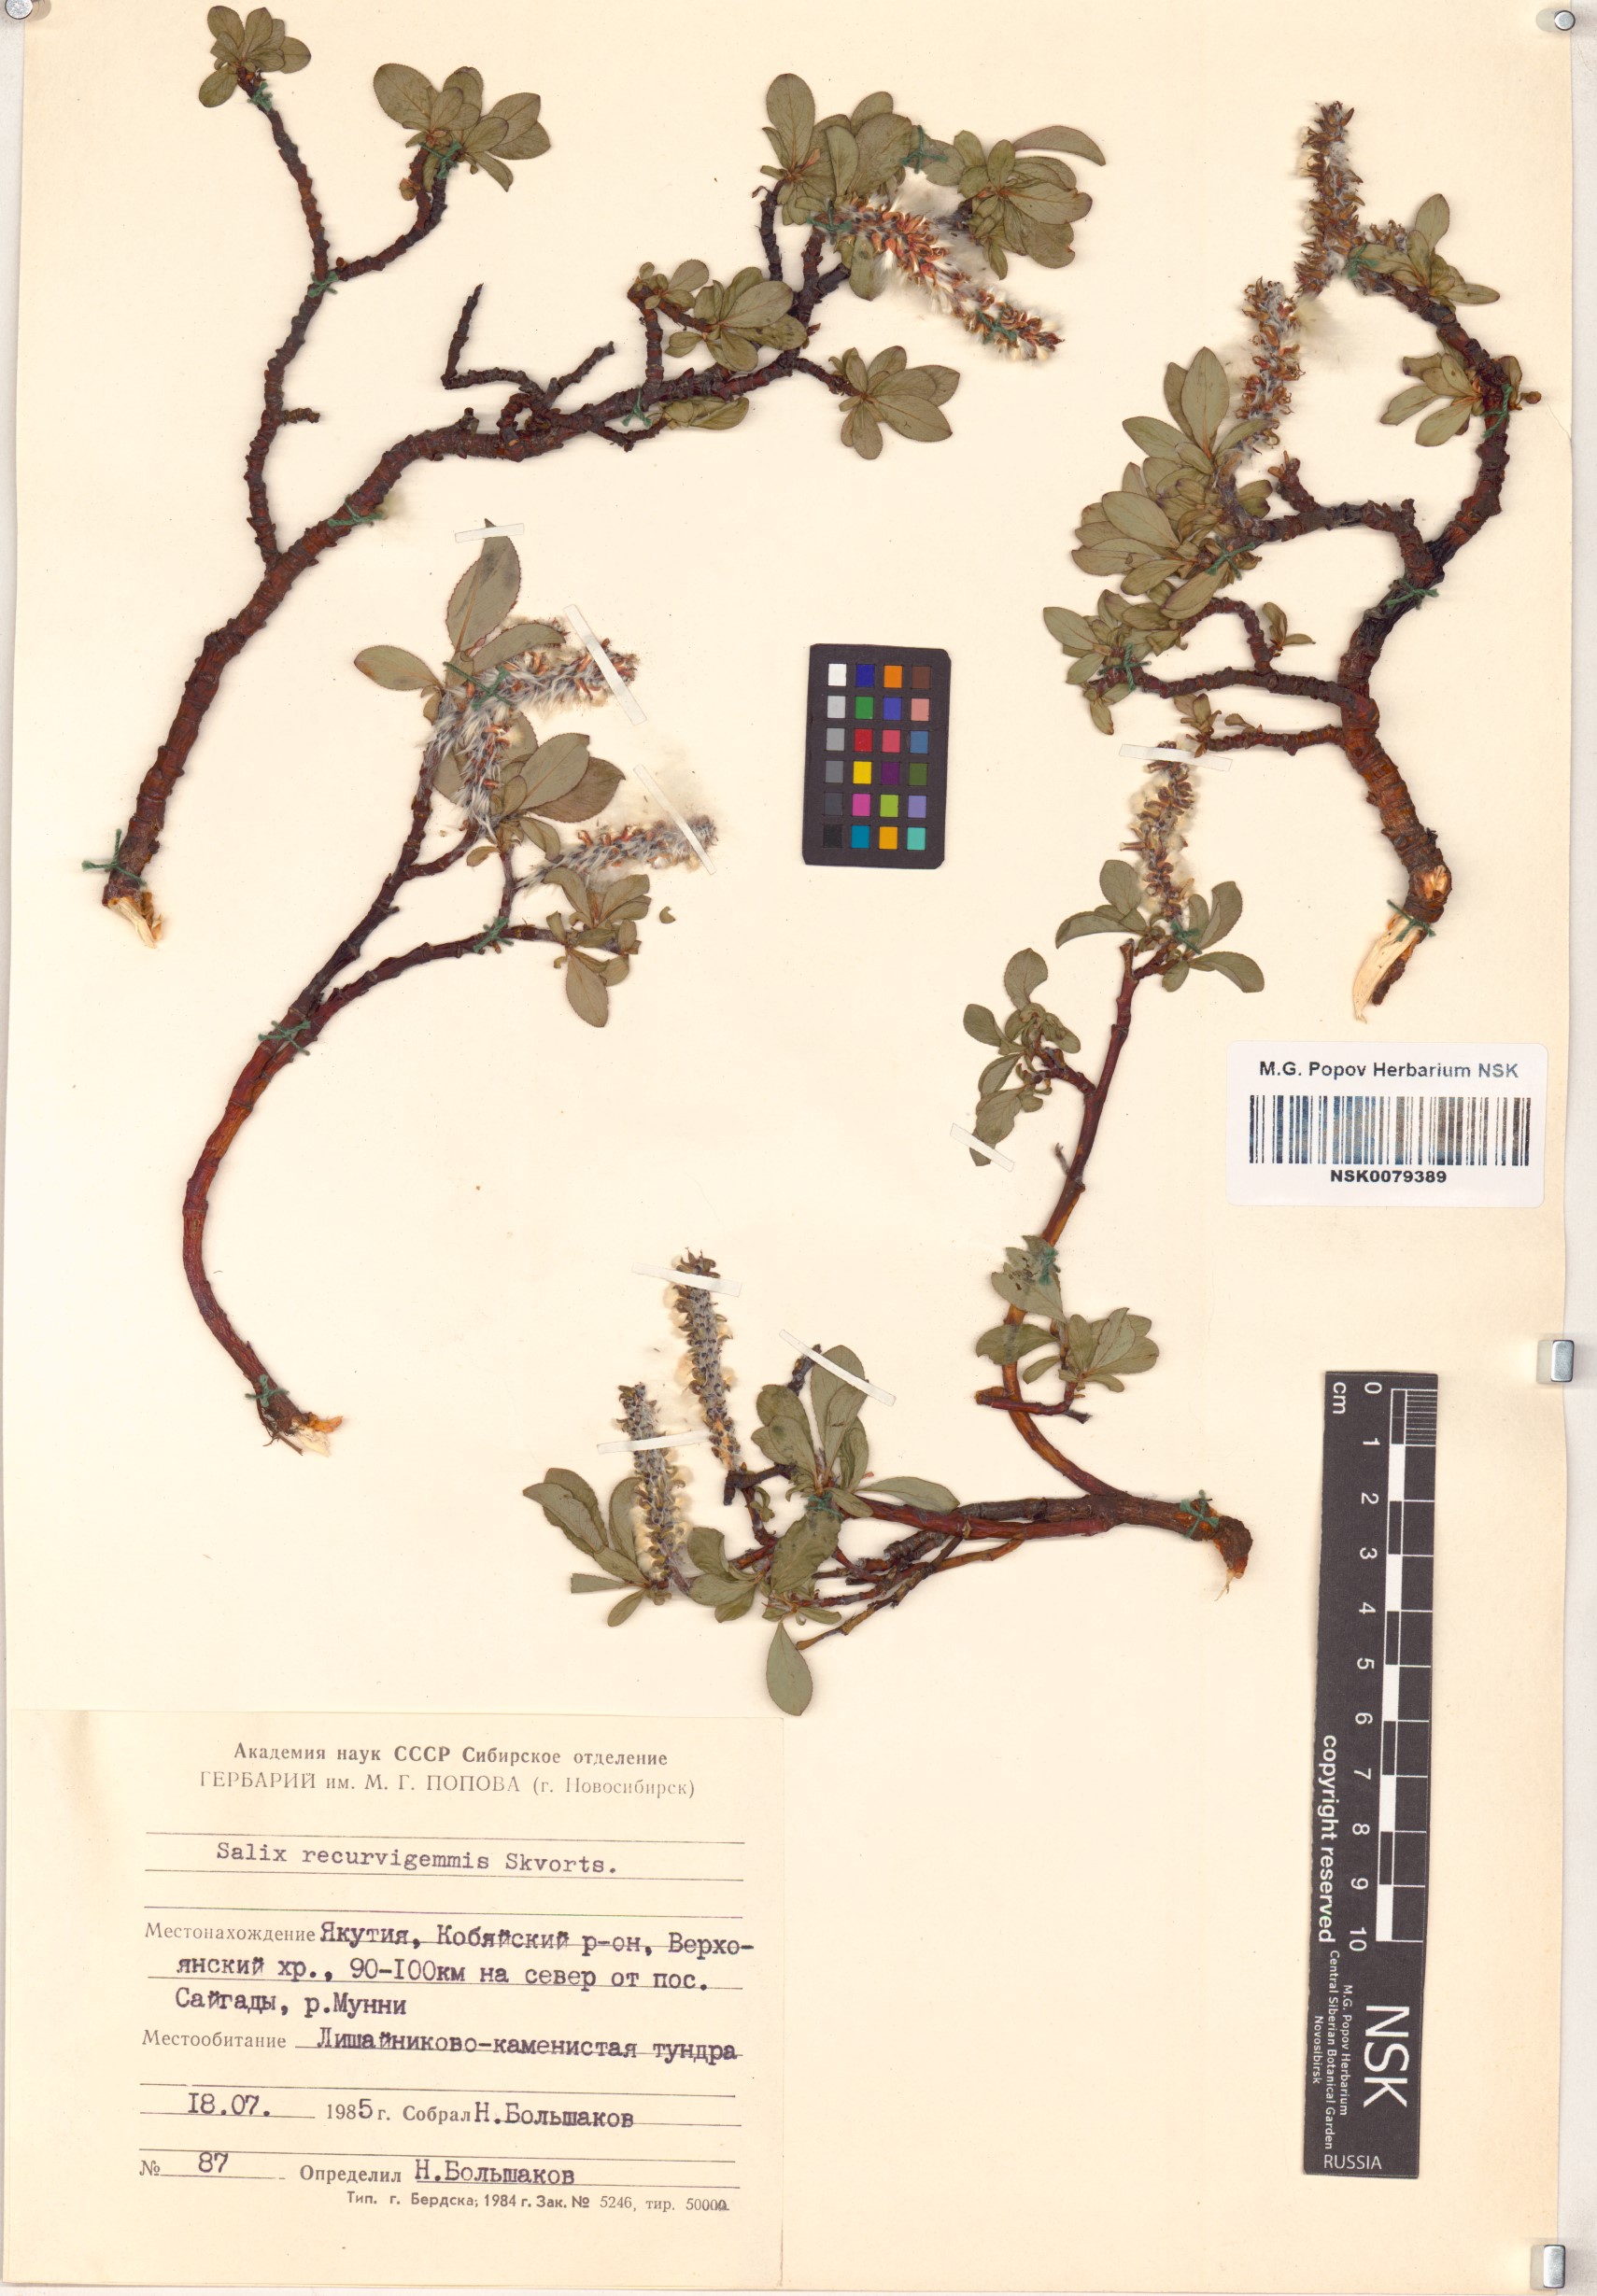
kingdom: Plantae
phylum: Tracheophyta
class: Magnoliopsida
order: Malpighiales
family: Salicaceae
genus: Salix
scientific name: Salix recurvigemmata
